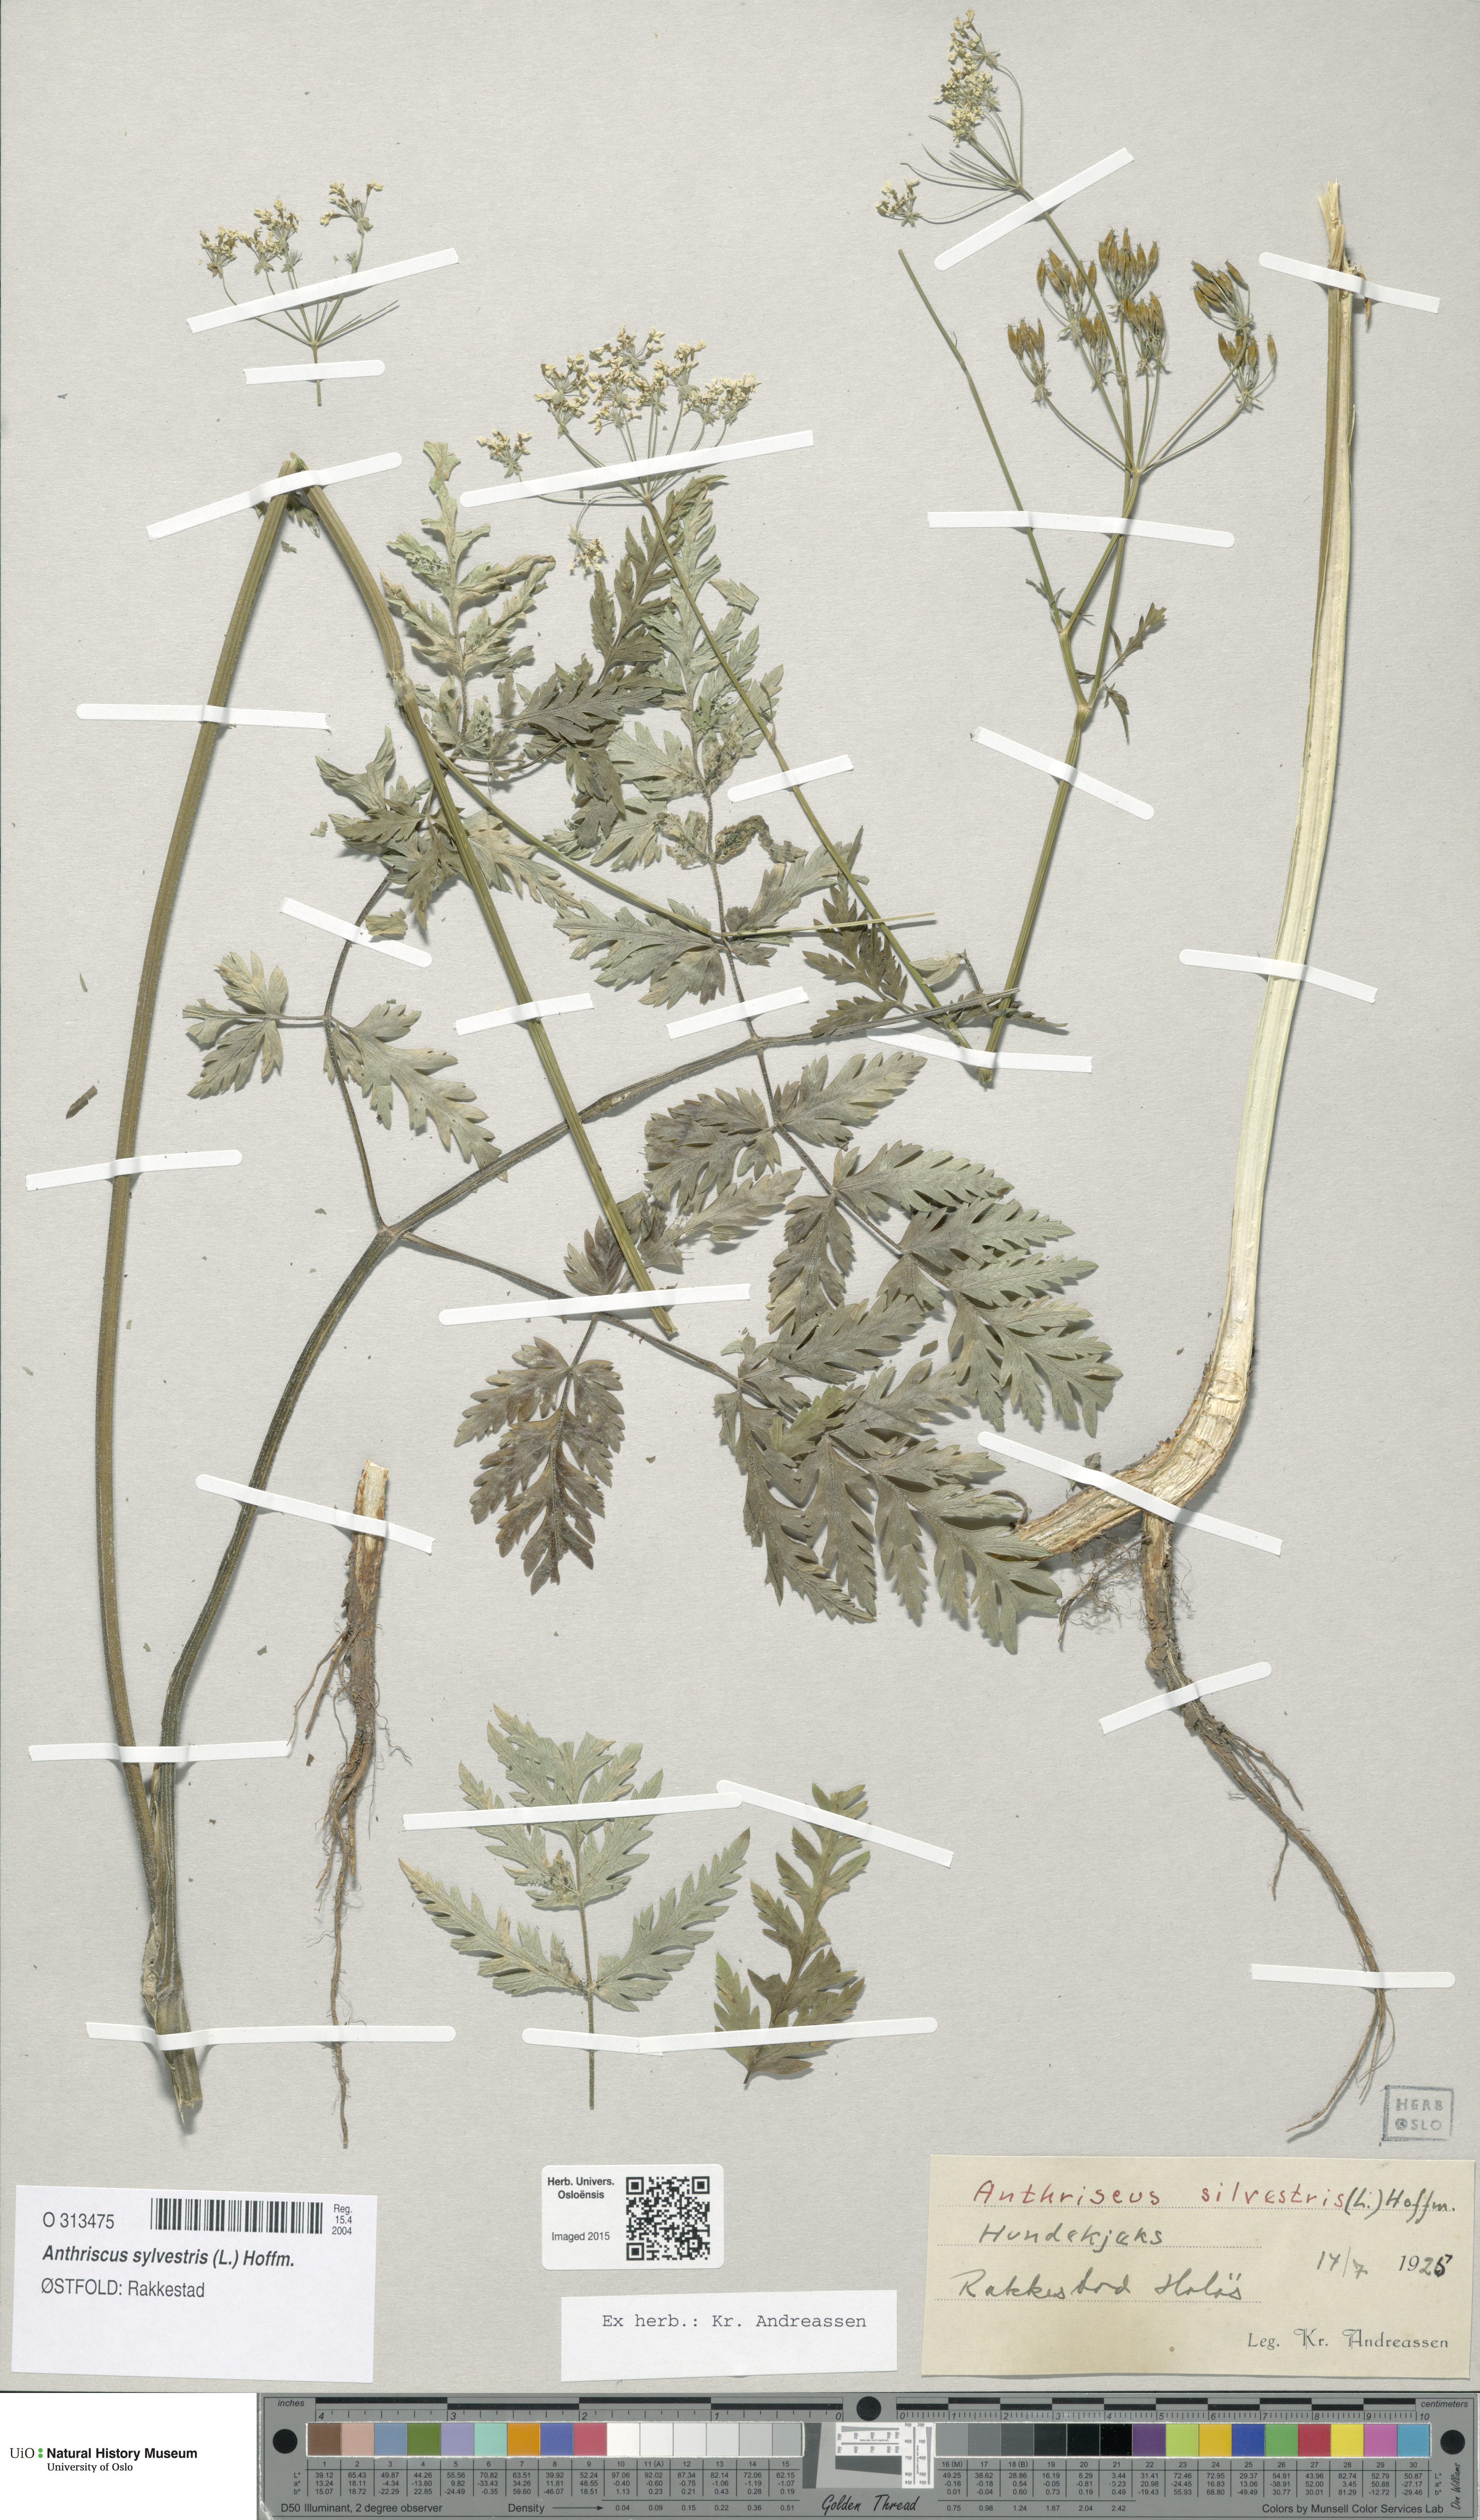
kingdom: Plantae
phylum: Tracheophyta
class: Magnoliopsida
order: Apiales
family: Apiaceae
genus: Anthriscus
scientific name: Anthriscus sylvestris
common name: Cow parsley
